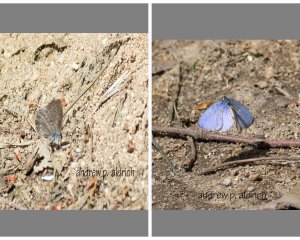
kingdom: Animalia
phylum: Arthropoda
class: Insecta
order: Lepidoptera
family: Lycaenidae
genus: Celastrina
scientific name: Celastrina lucia
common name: Northern Spring Azure
